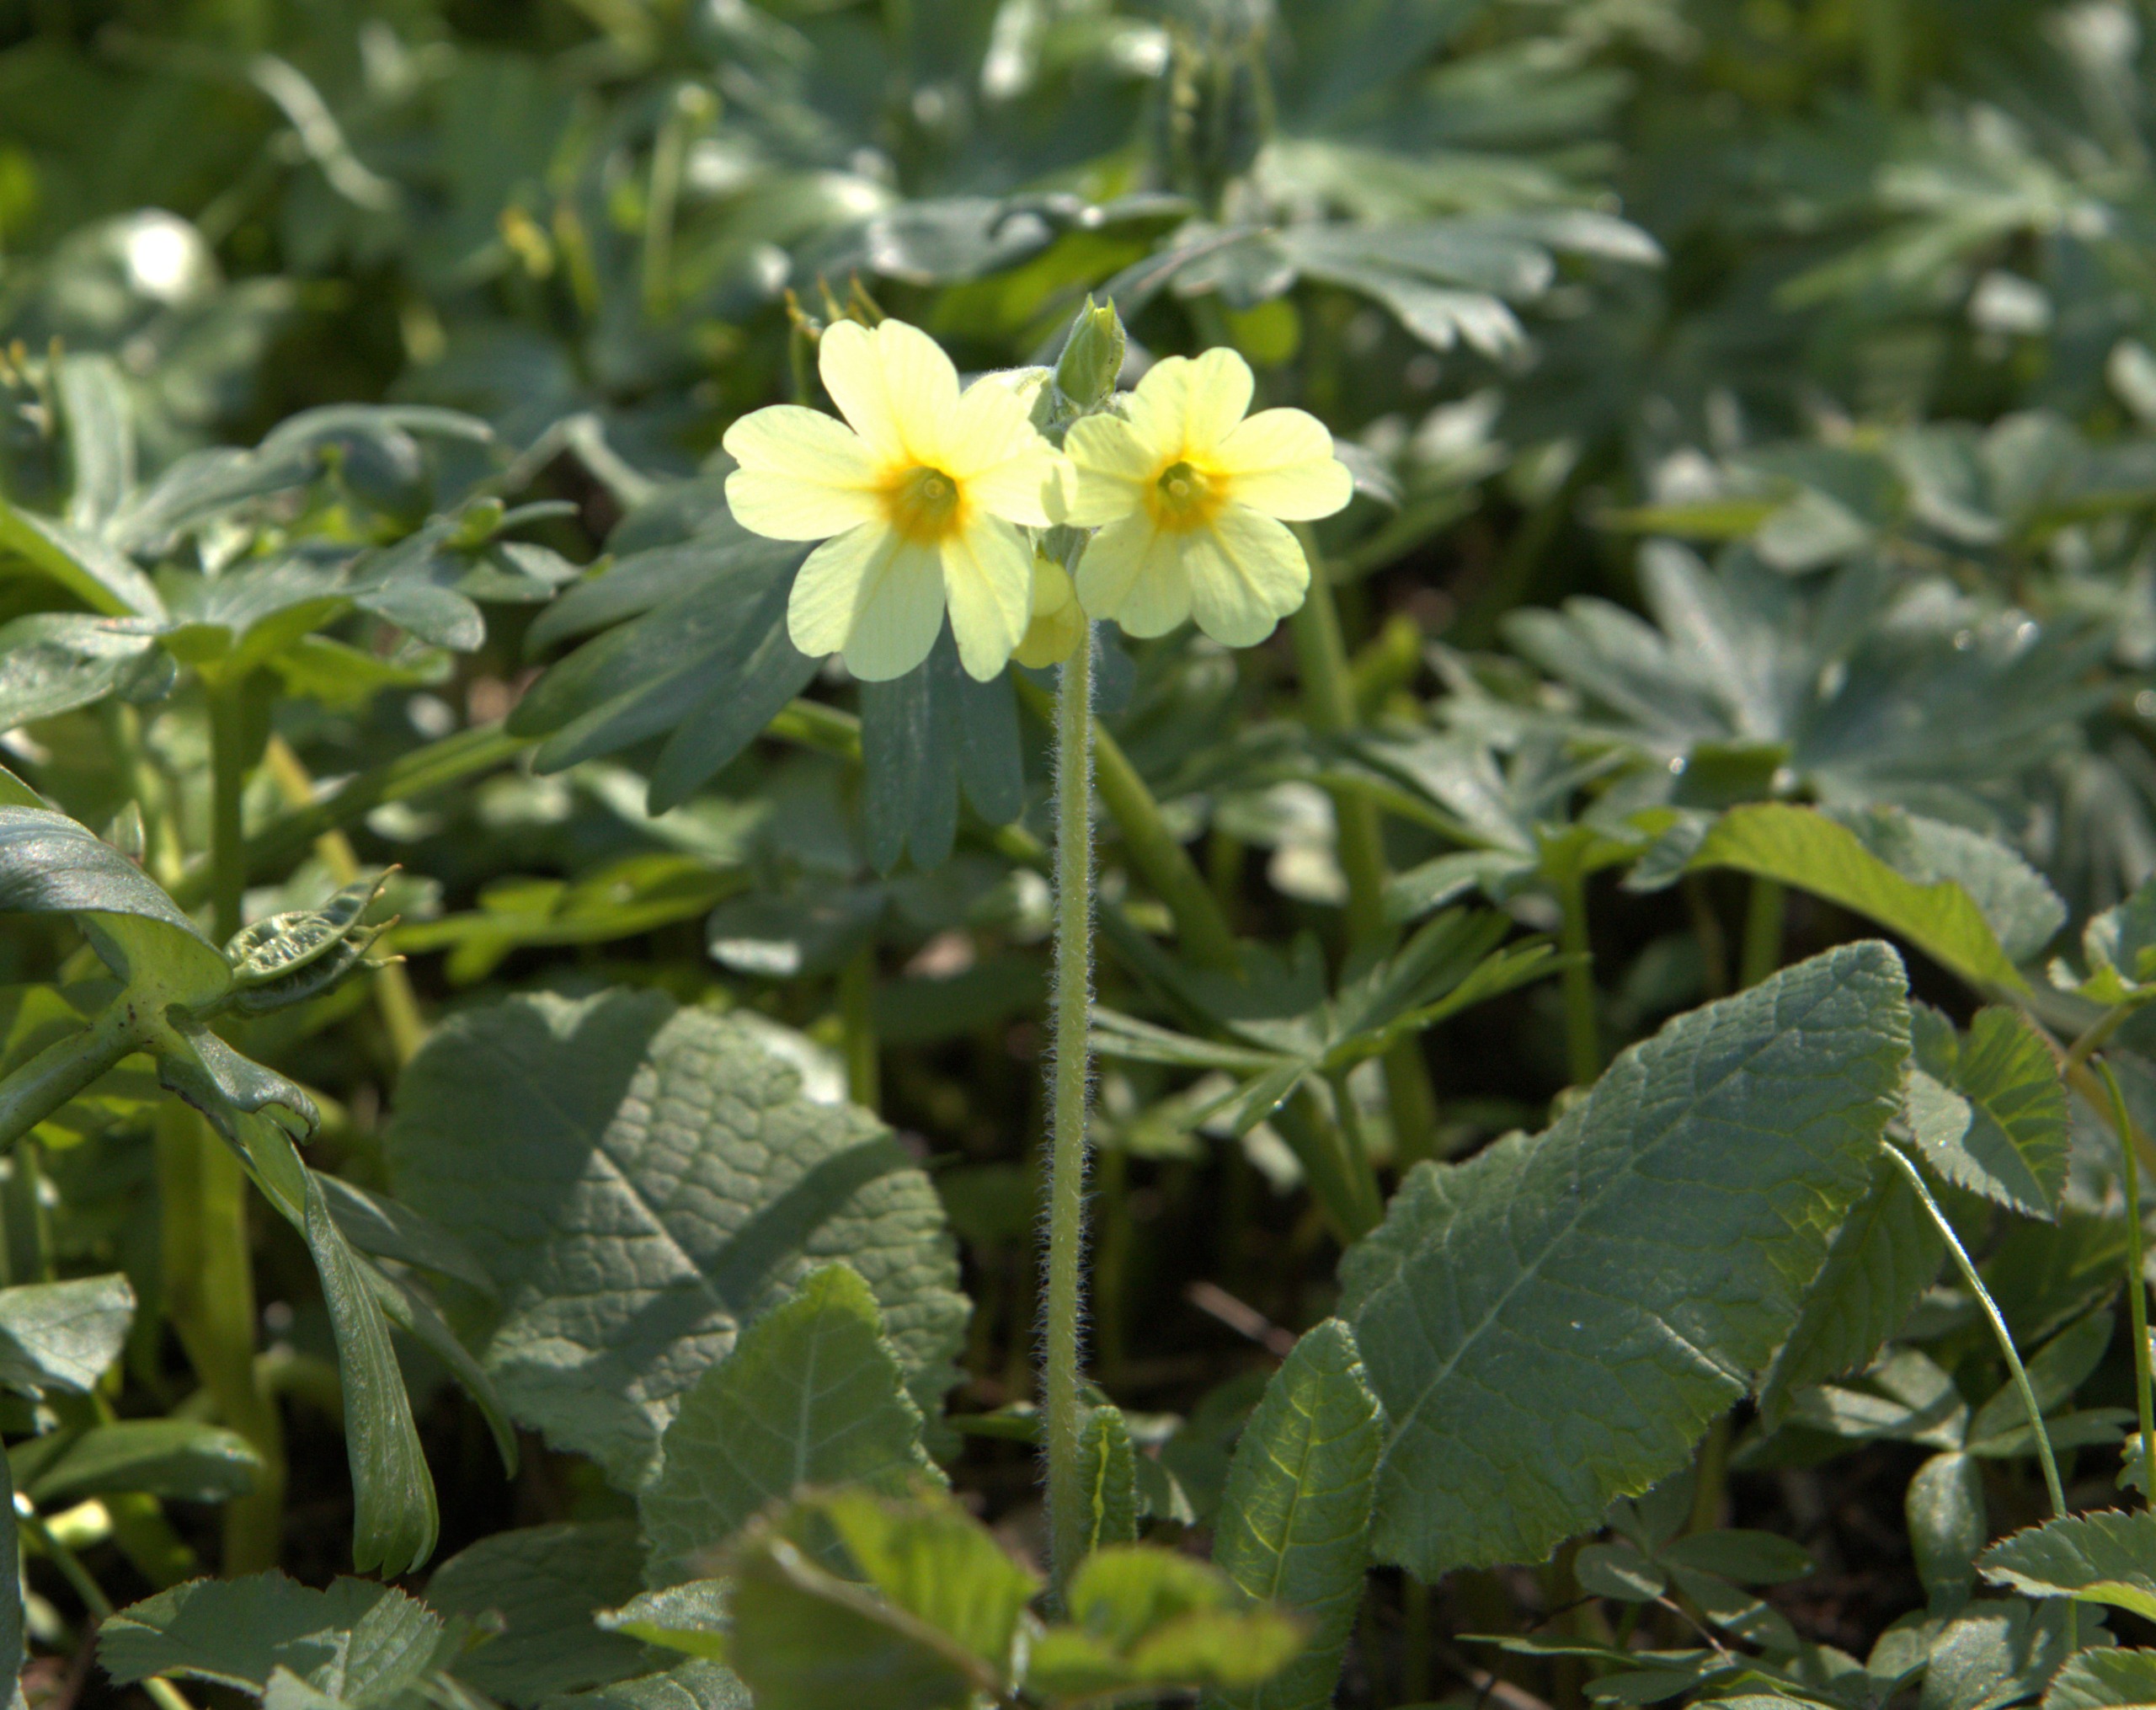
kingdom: Plantae
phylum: Tracheophyta
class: Magnoliopsida
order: Ericales
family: Primulaceae
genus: Primula
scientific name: Primula elatior
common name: Fladkravet kodriver
